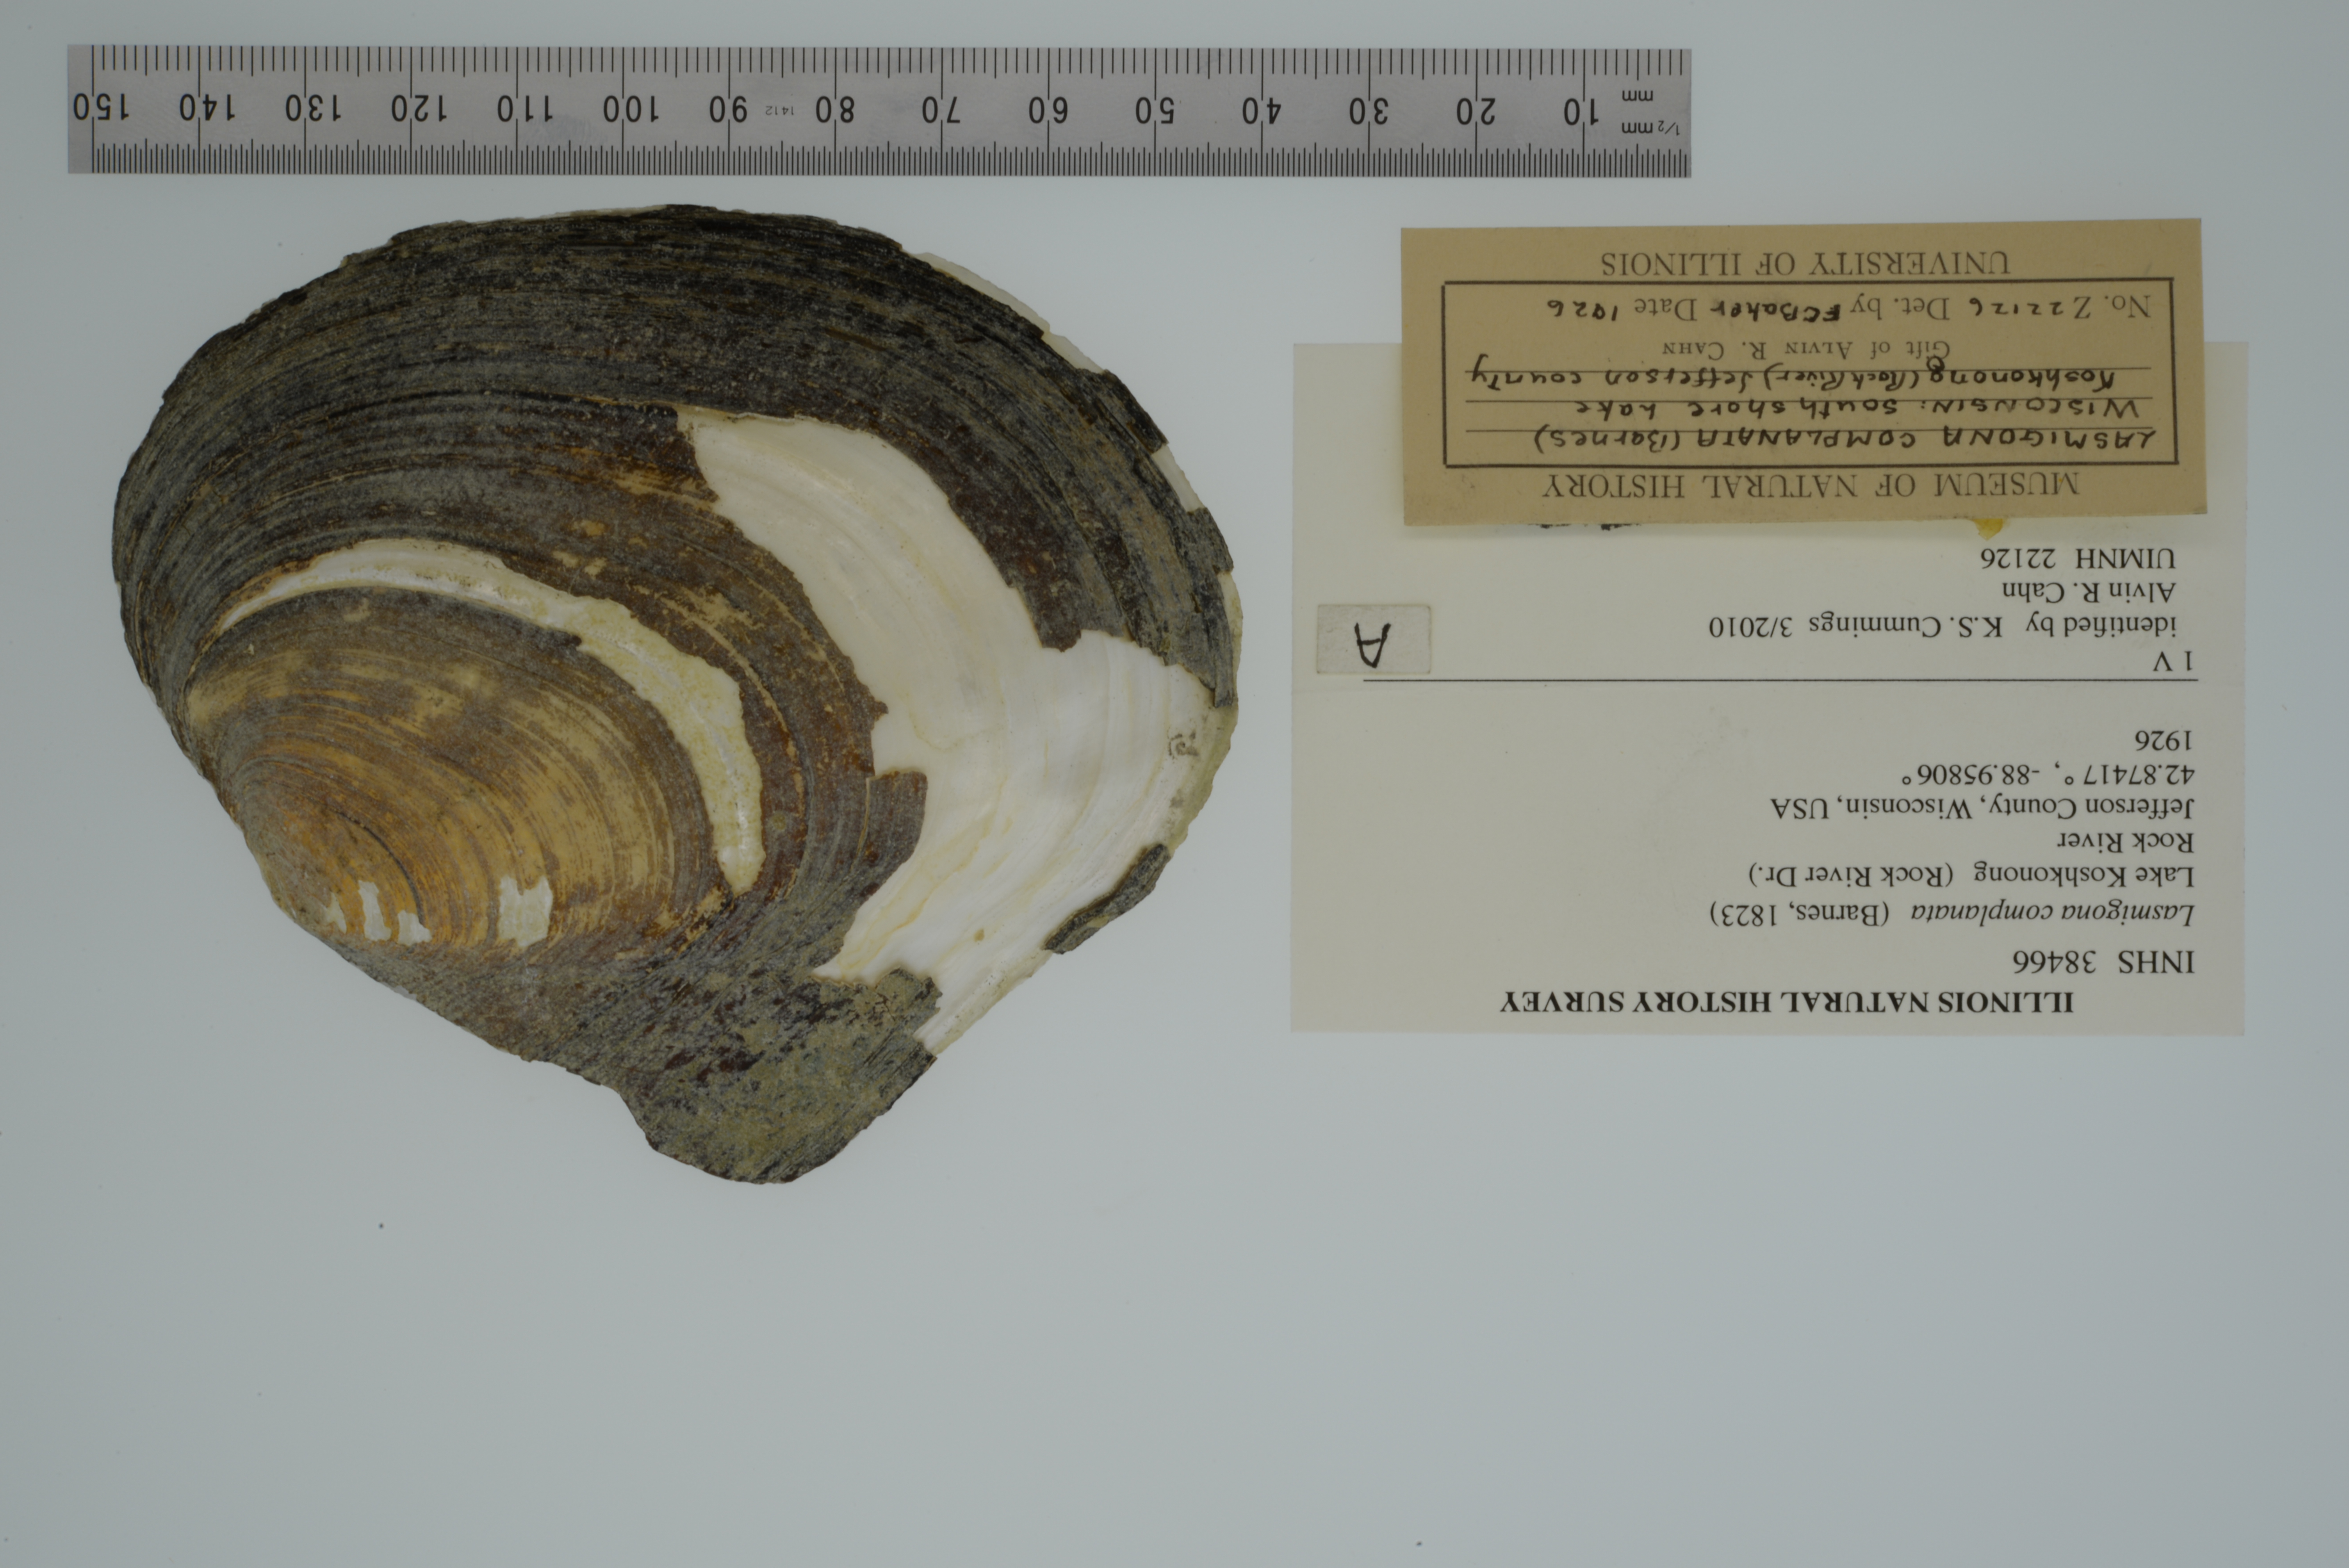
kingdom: Animalia
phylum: Mollusca
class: Bivalvia
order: Unionida
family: Unionidae
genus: Lasmigona
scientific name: Lasmigona complanata
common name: White heelsplitter
